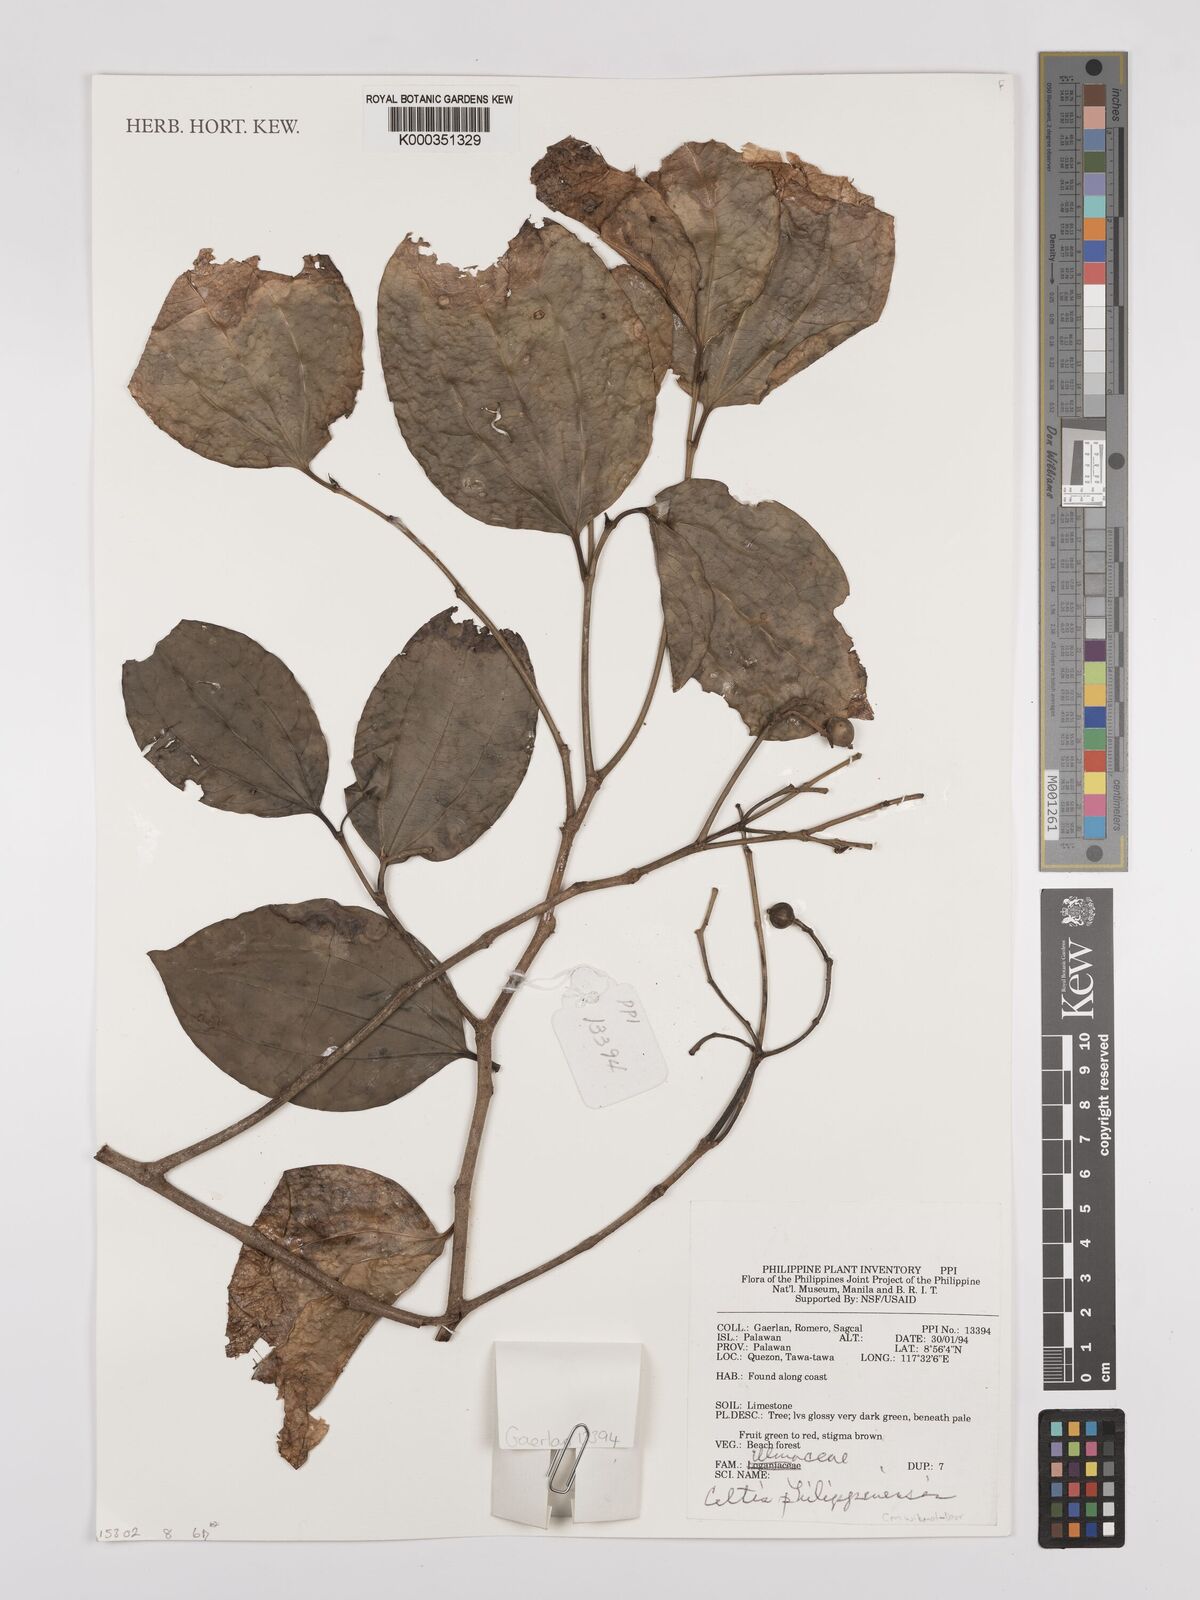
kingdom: Plantae
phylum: Tracheophyta
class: Magnoliopsida
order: Rosales
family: Cannabaceae
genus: Celtis
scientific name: Celtis philippensis
